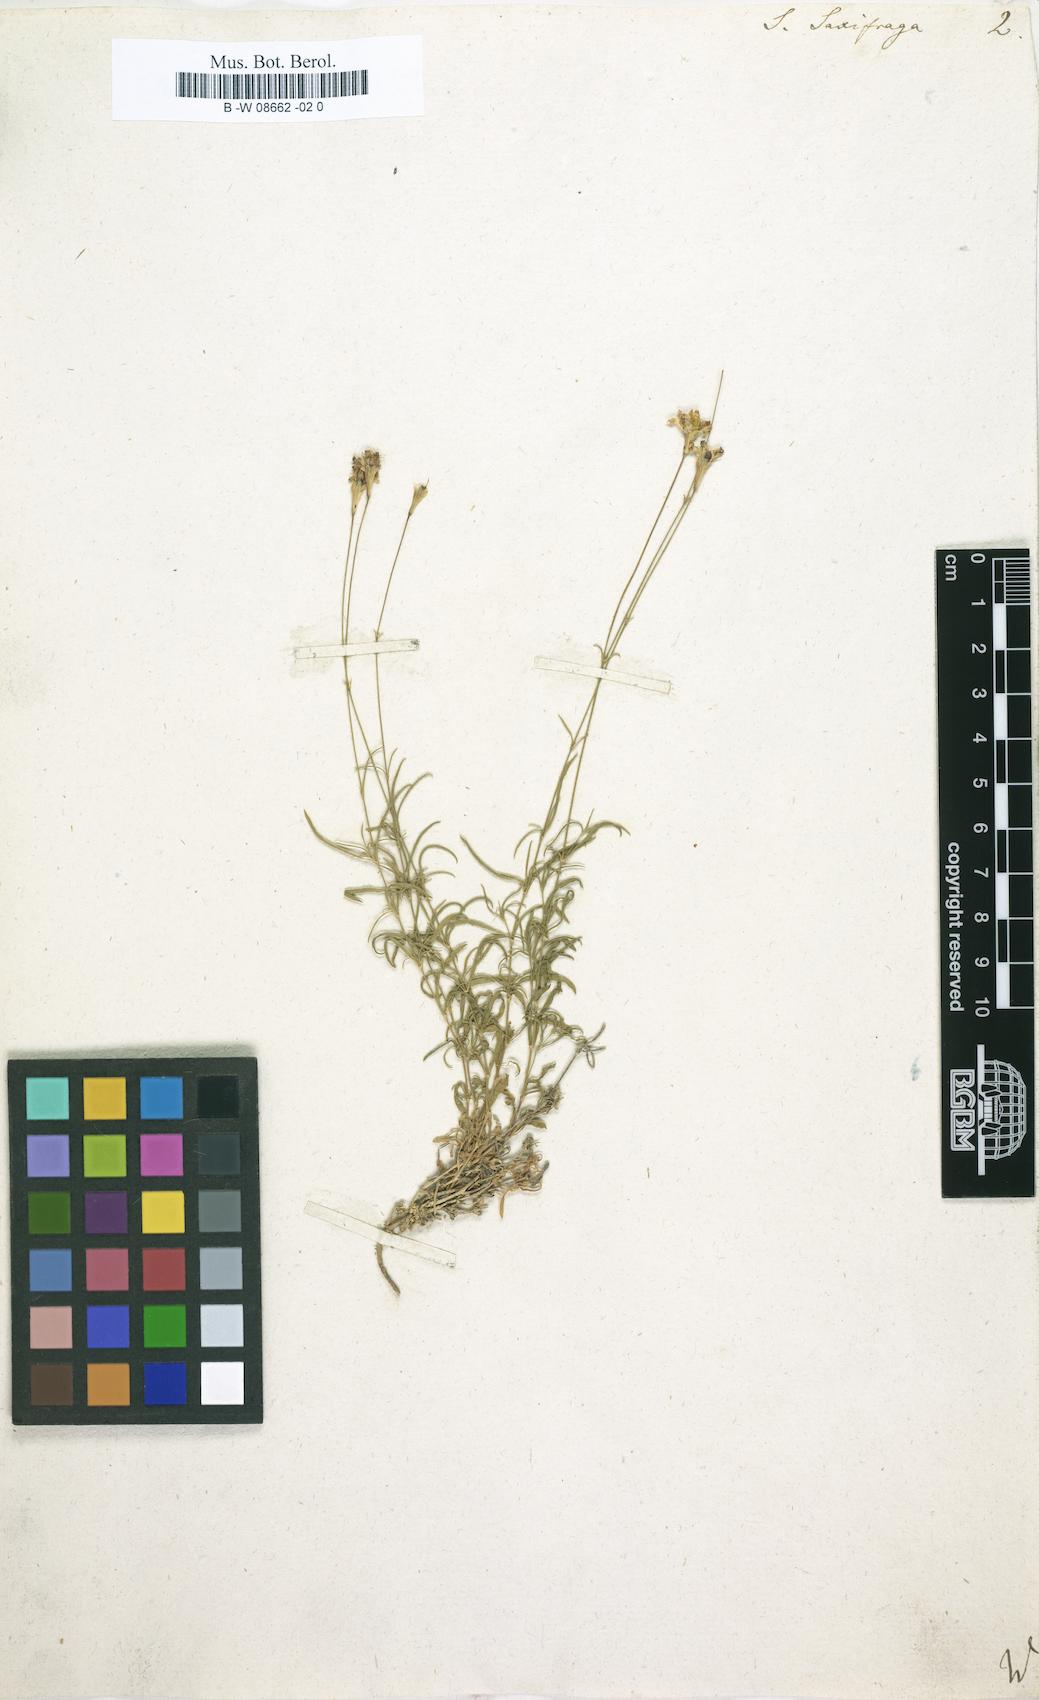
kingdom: Plantae
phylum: Tracheophyta
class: Magnoliopsida
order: Caryophyllales
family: Caryophyllaceae
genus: Silene
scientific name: Silene saxifraga
